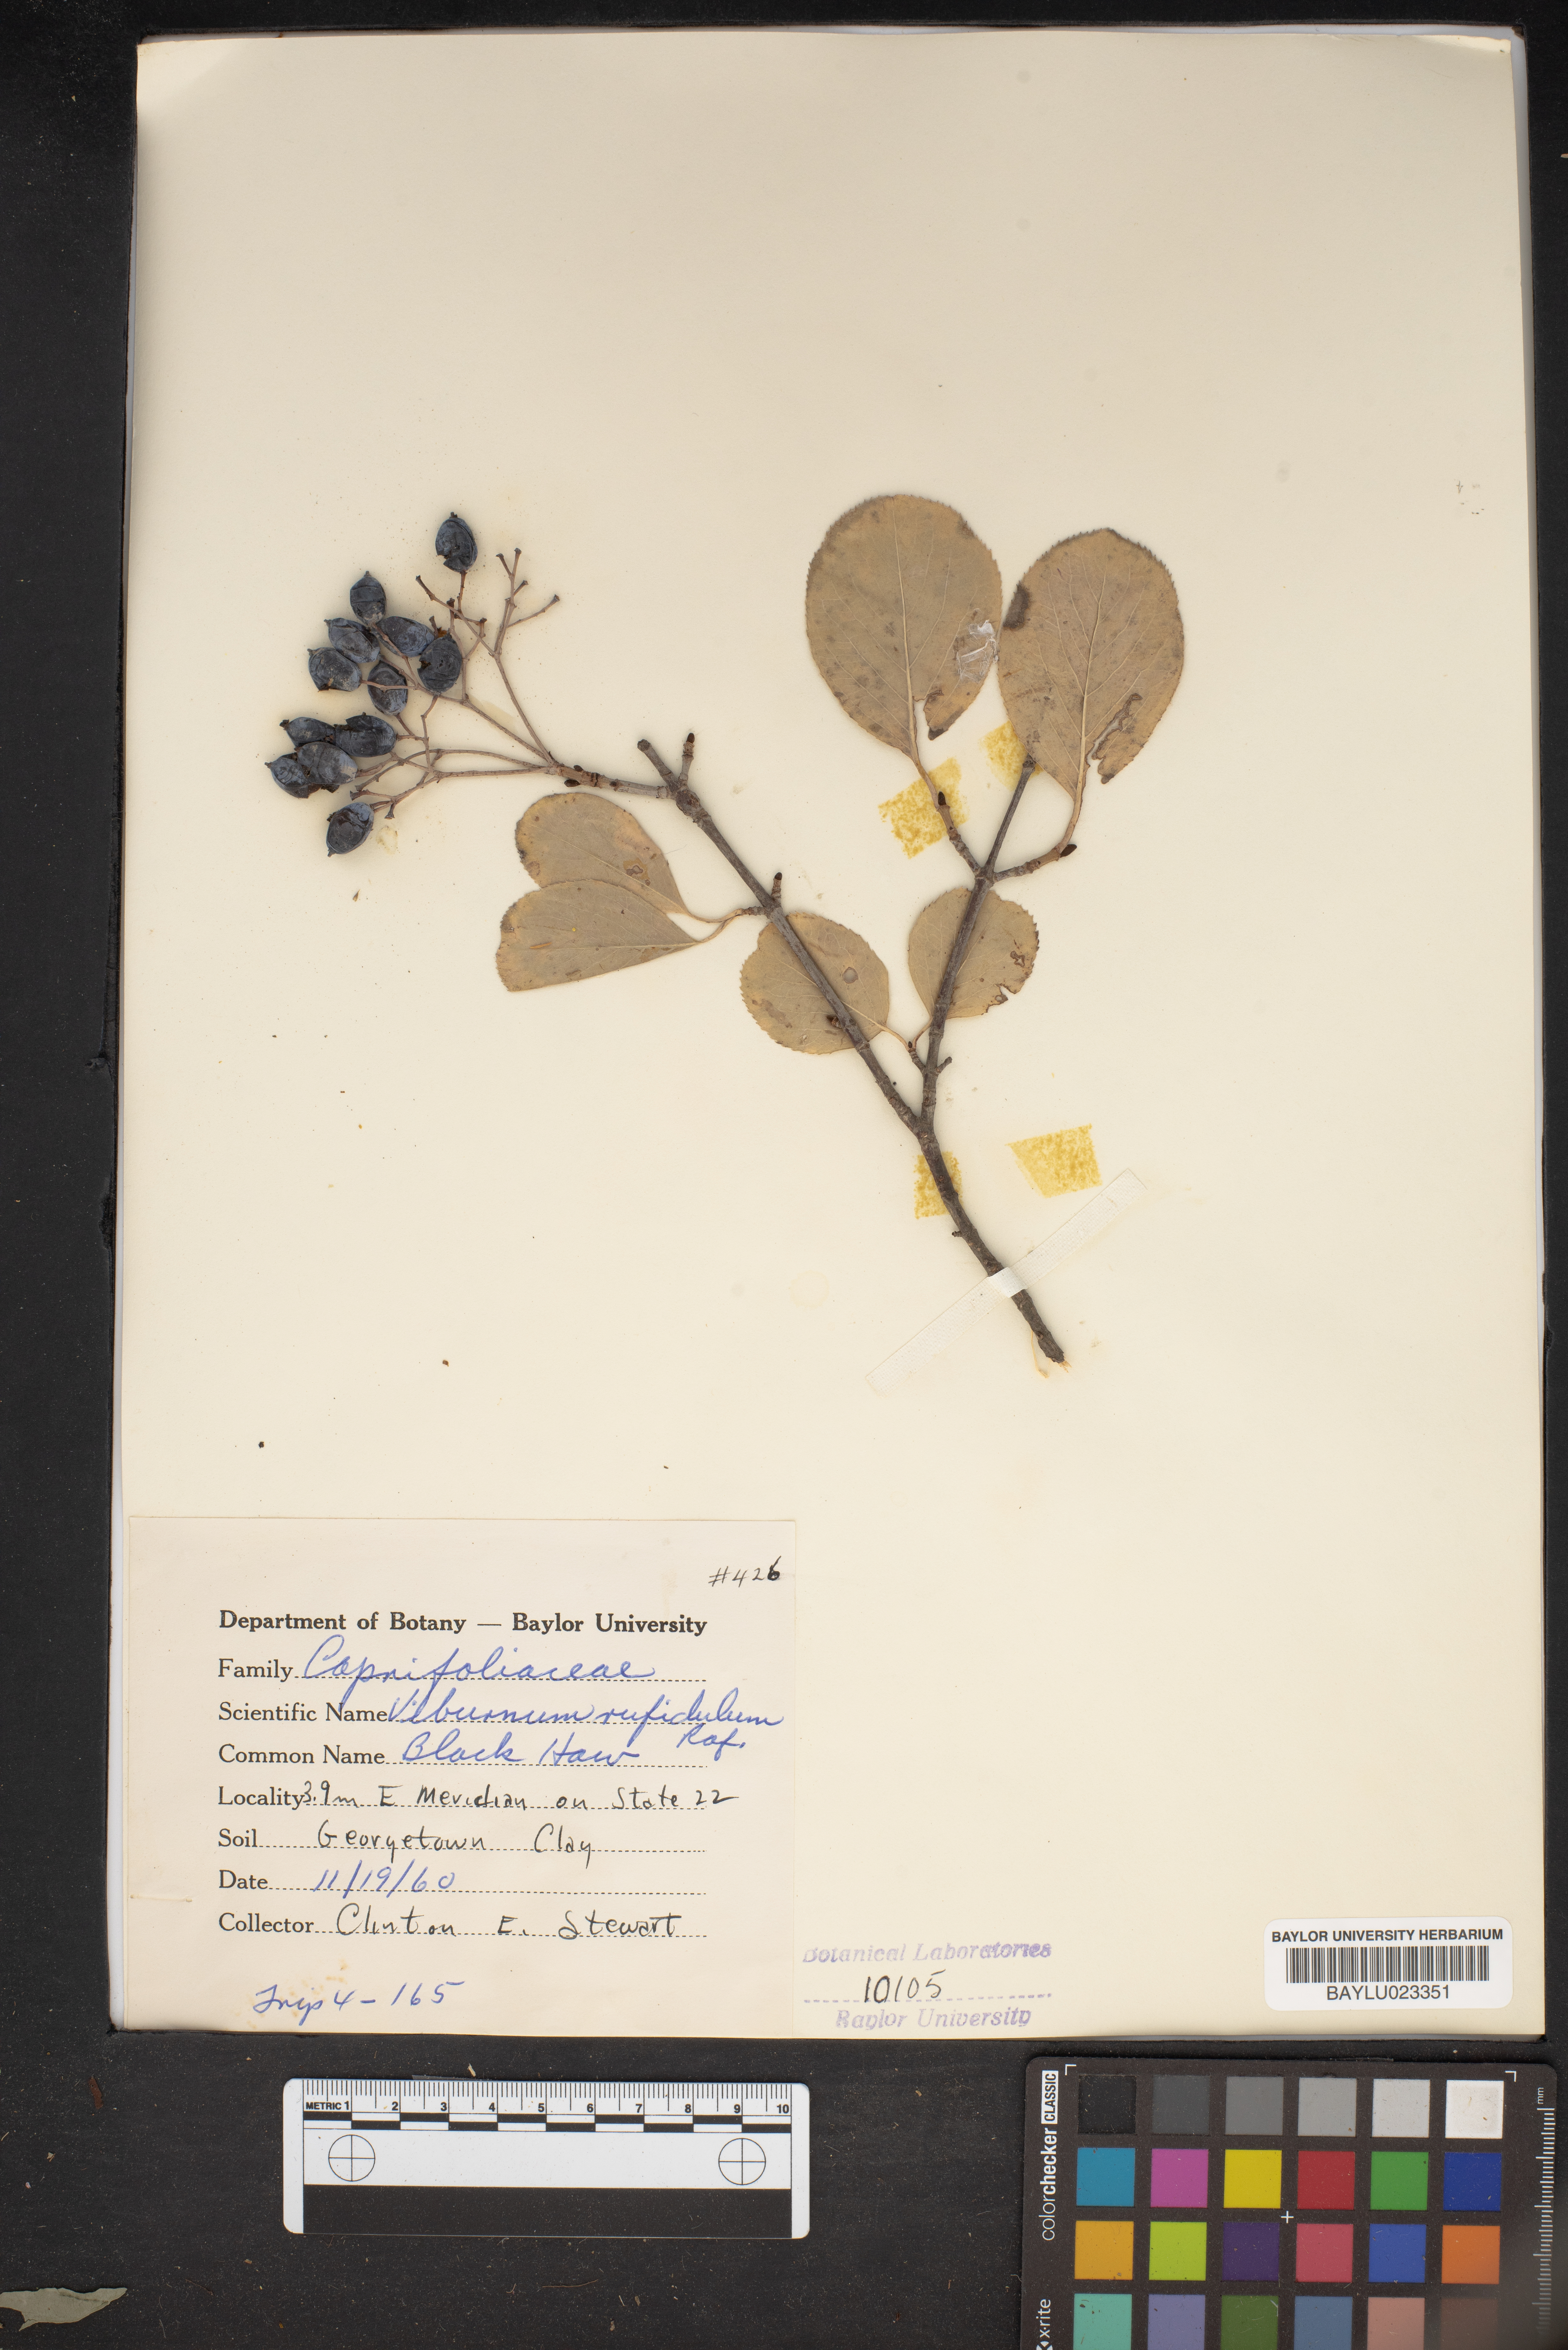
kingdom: Plantae
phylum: Tracheophyta
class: Magnoliopsida
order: Dipsacales
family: Viburnaceae
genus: Viburnum
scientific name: Viburnum rufidulum
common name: Blue haw
